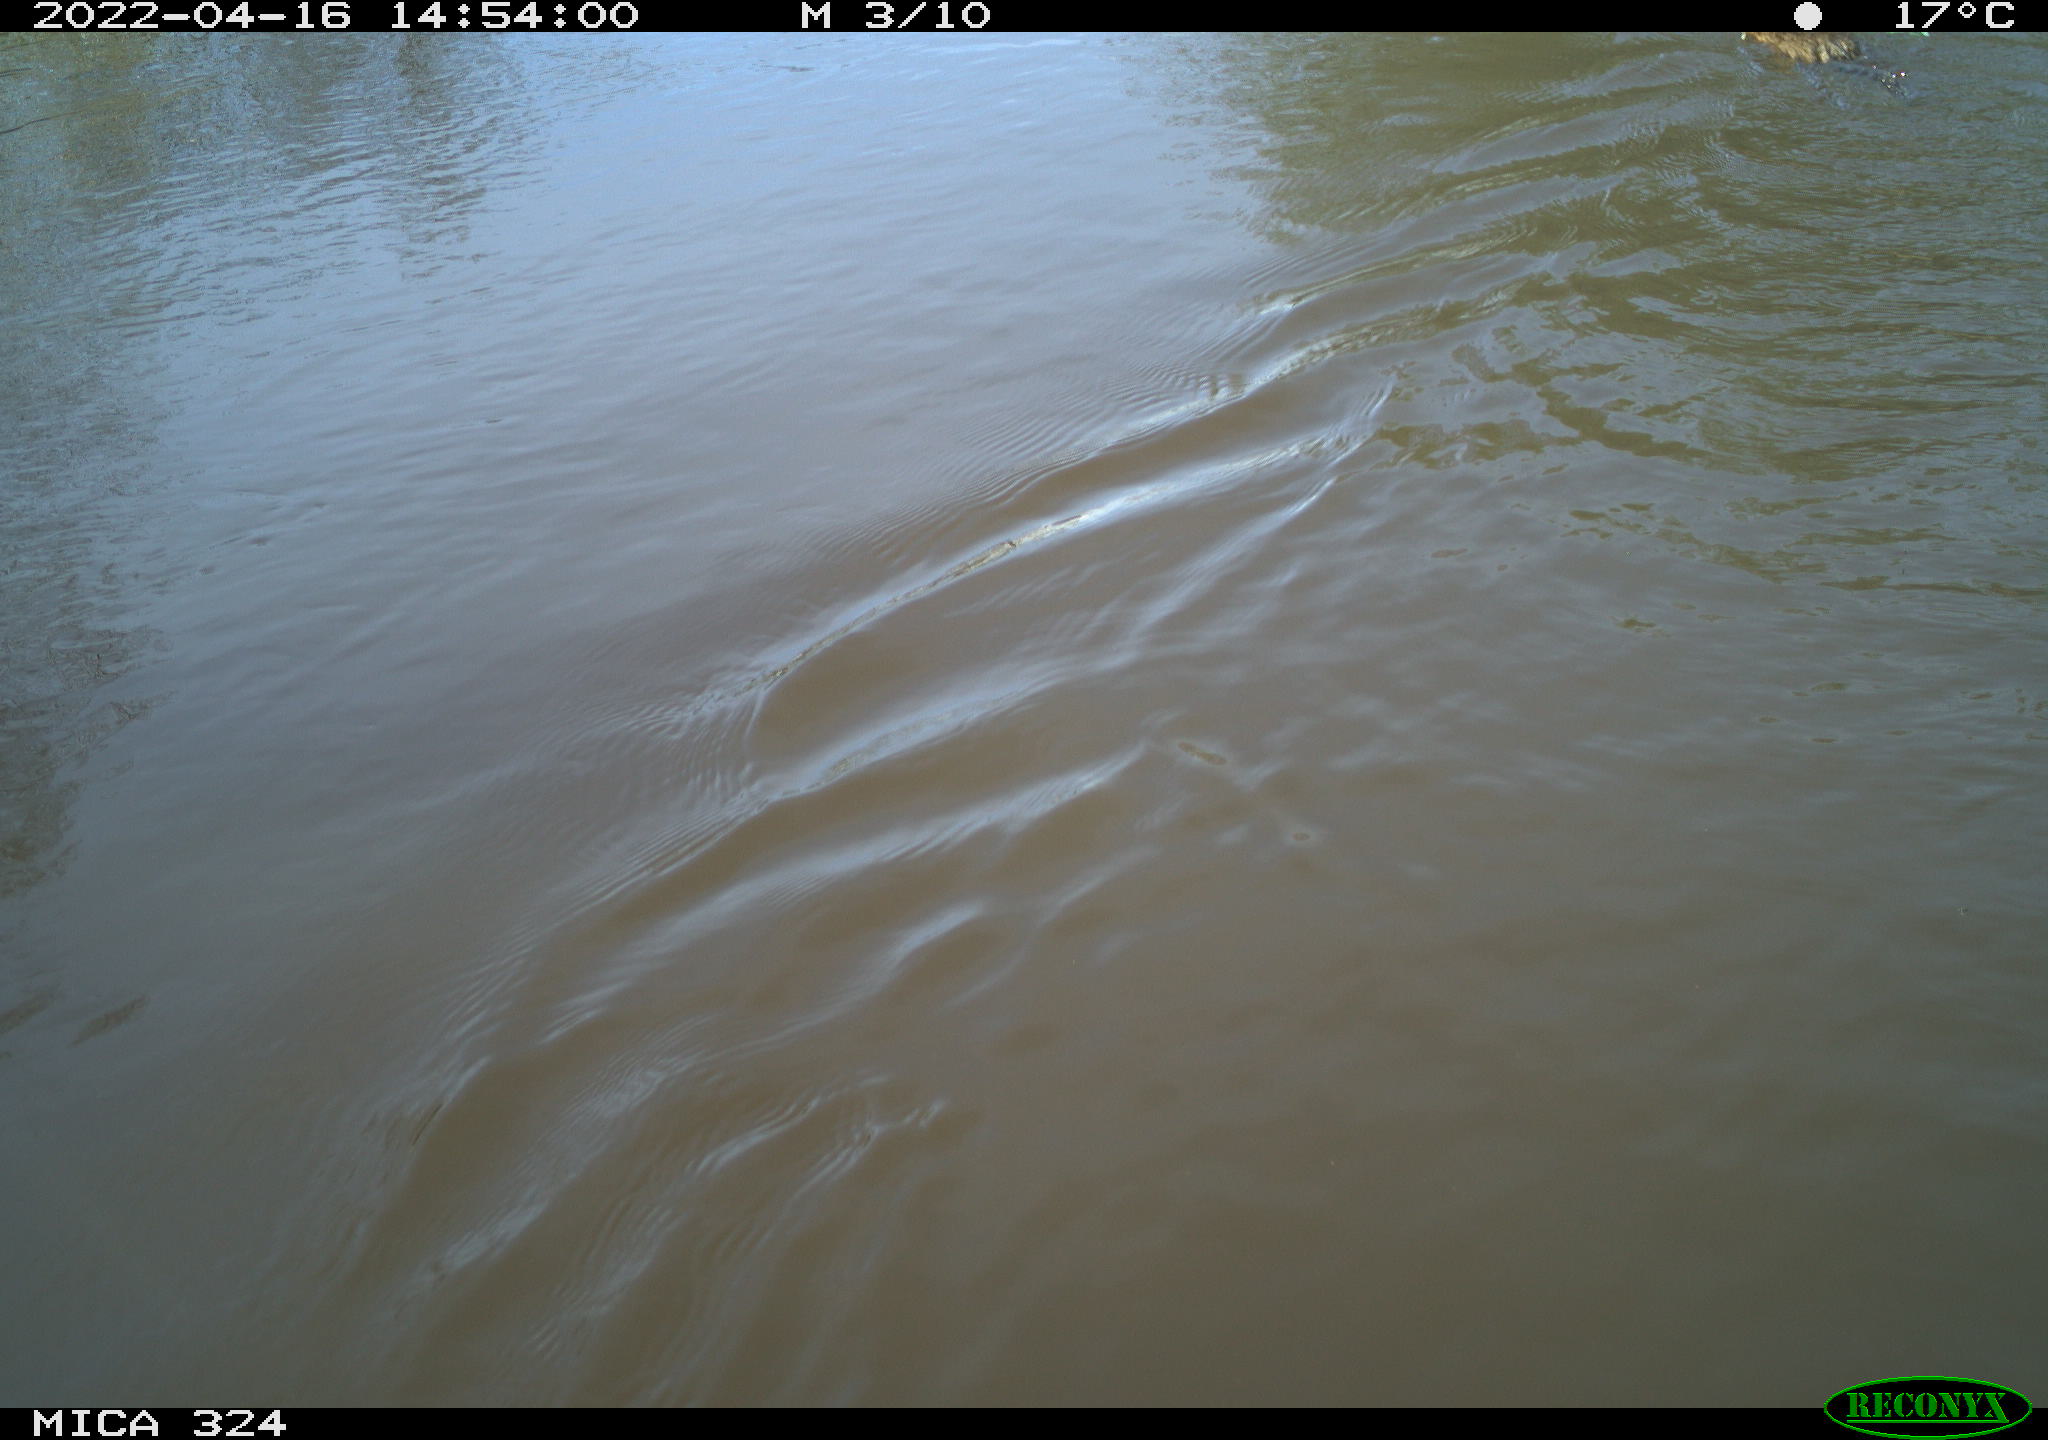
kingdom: Animalia
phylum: Chordata
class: Mammalia
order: Rodentia
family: Cricetidae
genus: Ondatra
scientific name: Ondatra zibethicus
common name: Muskrat
